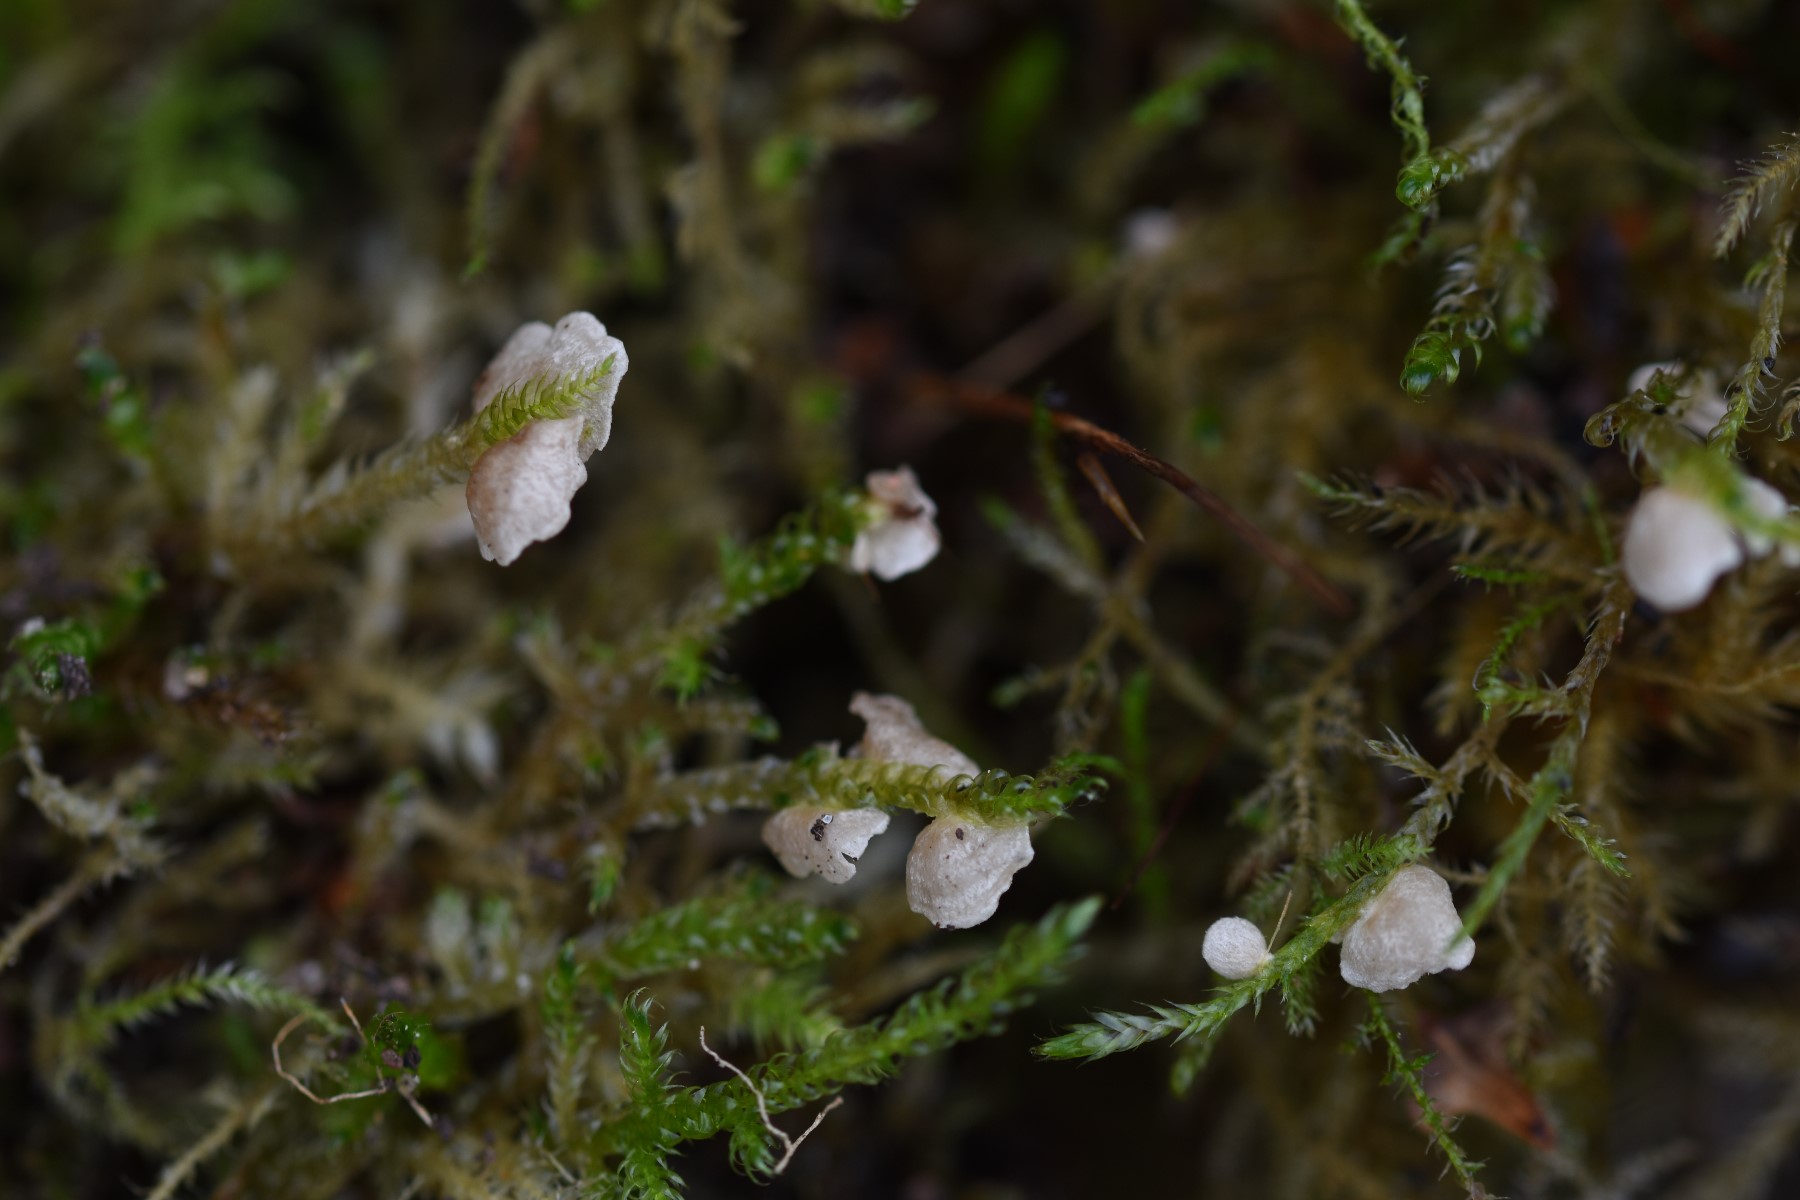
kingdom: Fungi
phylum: Basidiomycota
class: Agaricomycetes
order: Agaricales
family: Hygrophoraceae
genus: Arrhenia
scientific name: Arrhenia retiruga
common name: lille fontænehat
